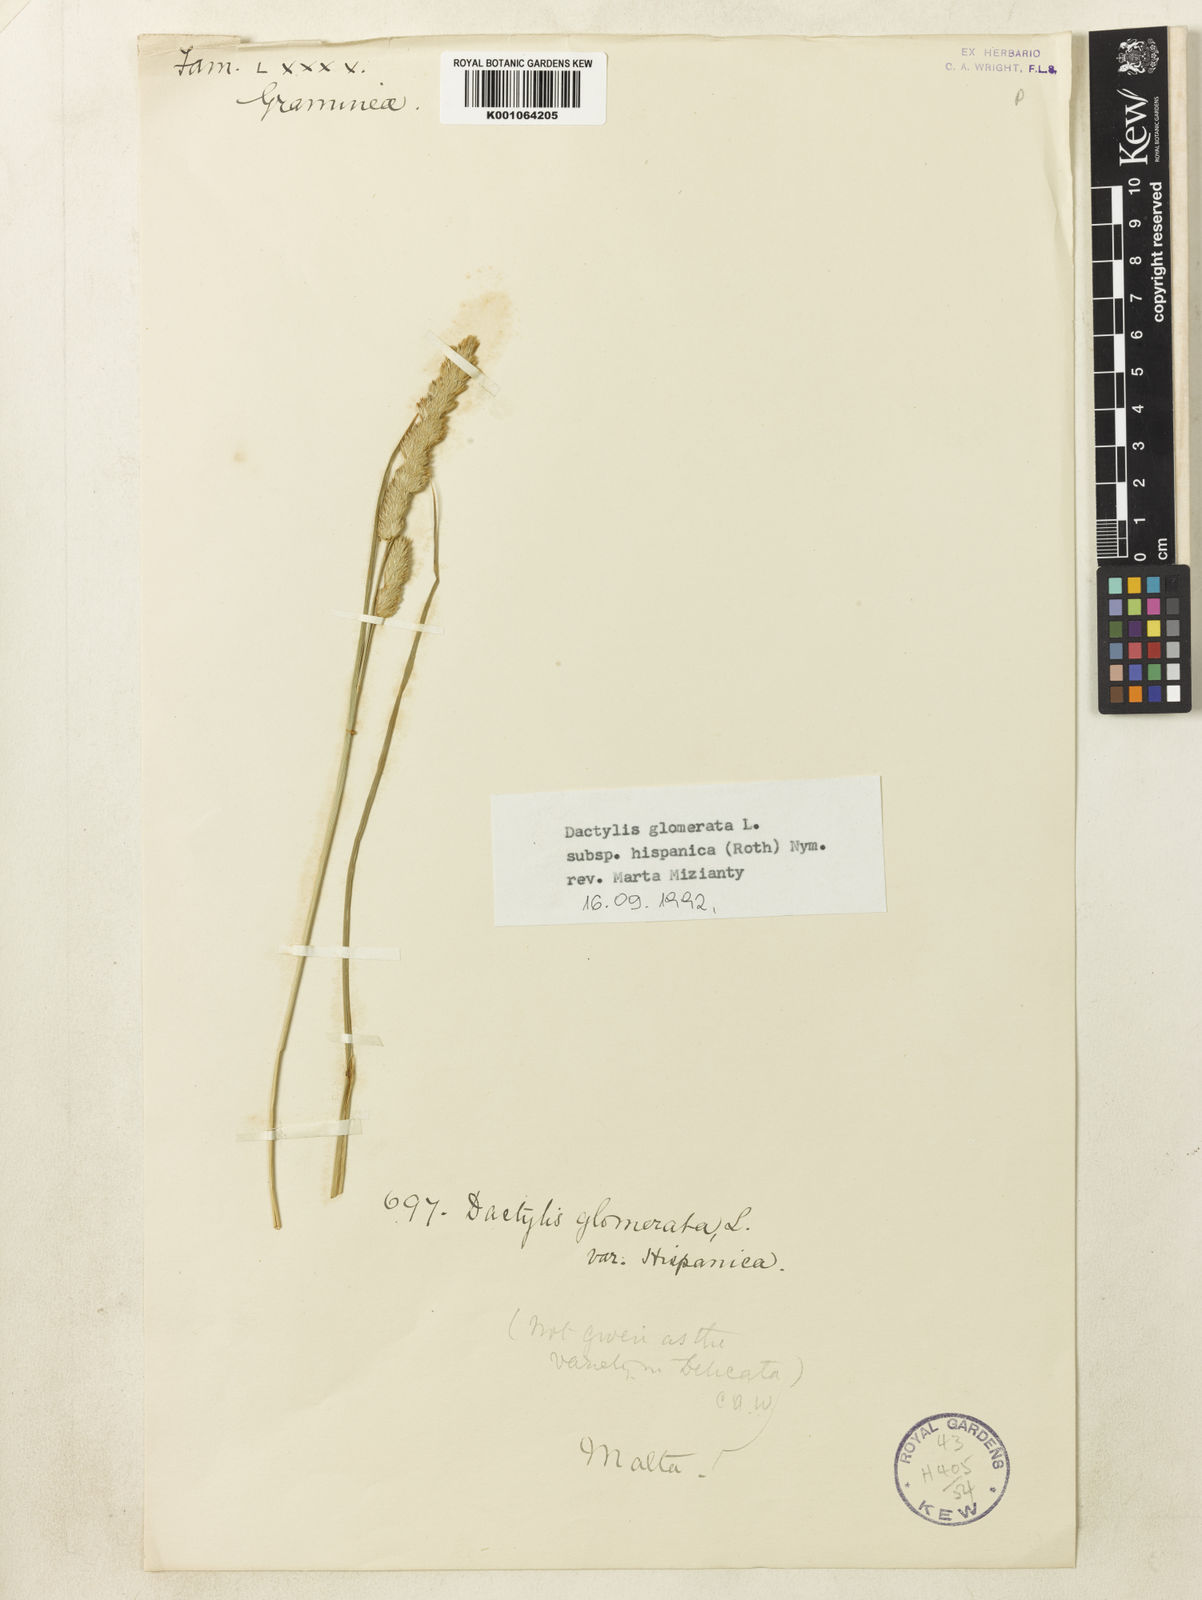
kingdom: Plantae
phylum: Tracheophyta
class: Liliopsida
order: Poales
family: Poaceae
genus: Dactylis
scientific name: Dactylis glomerata
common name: Orchardgrass
